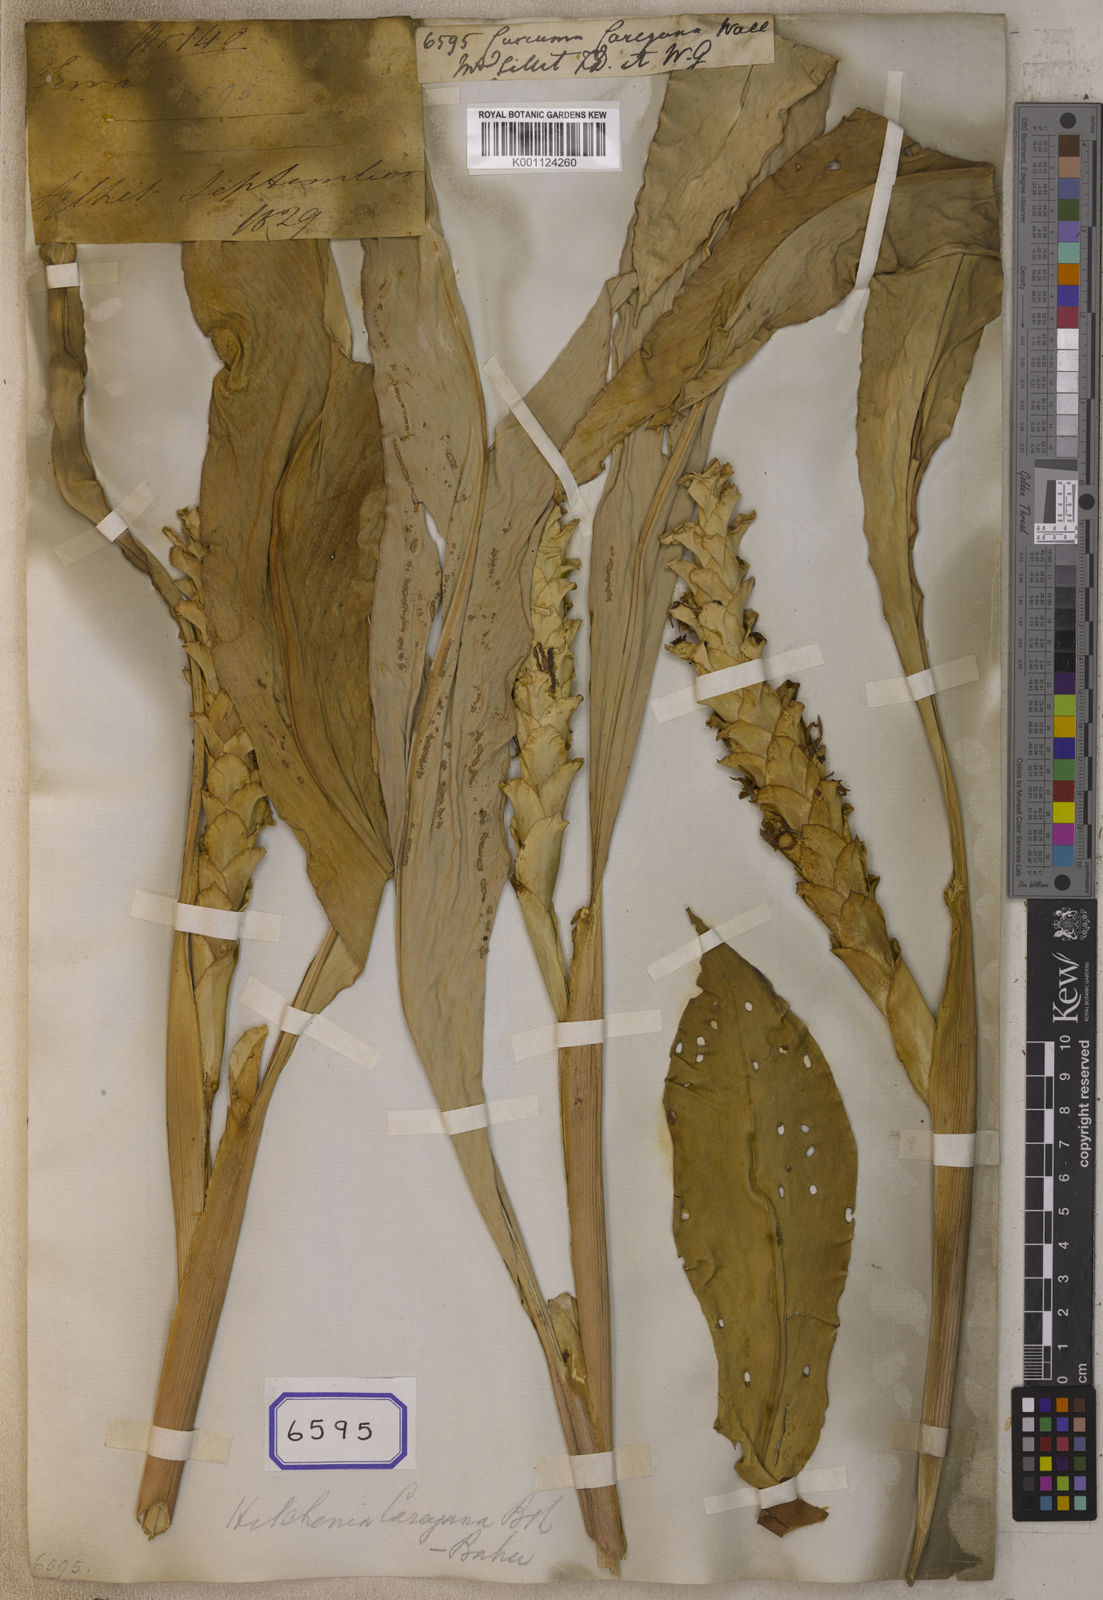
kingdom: Plantae
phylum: Tracheophyta
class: Liliopsida
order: Zingiberales
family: Zingiberaceae
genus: Larsenianthus
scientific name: Larsenianthus careyanus
